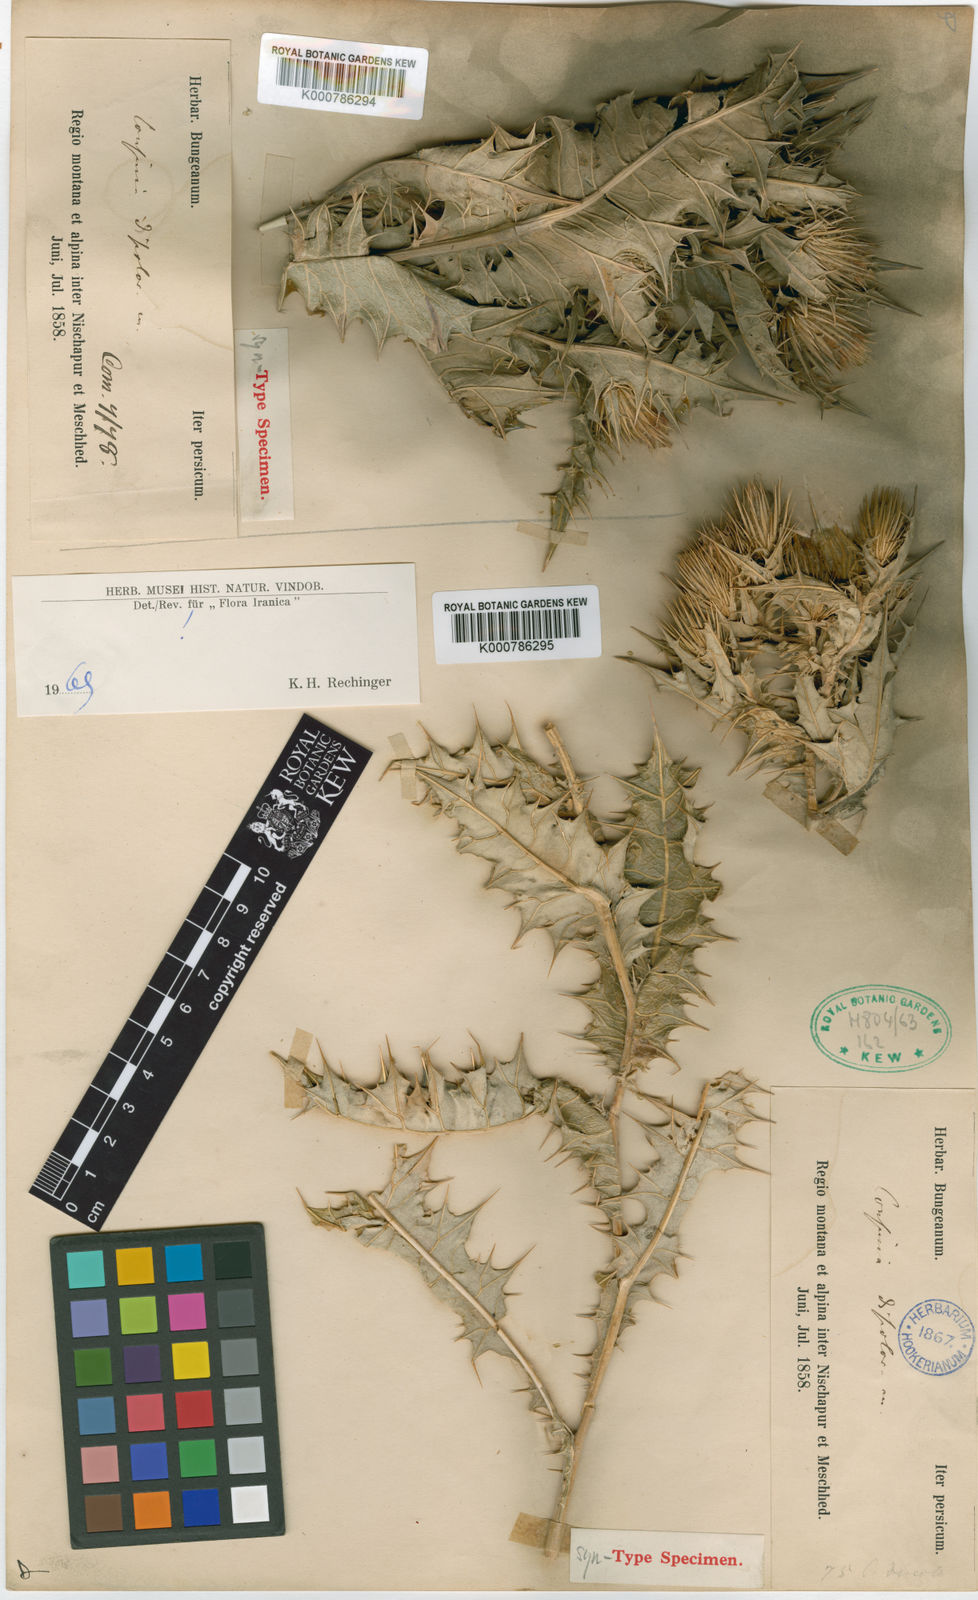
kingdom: Plantae
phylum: Tracheophyta
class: Magnoliopsida
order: Asterales
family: Asteraceae
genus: Cousinia
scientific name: Cousinia discolor
